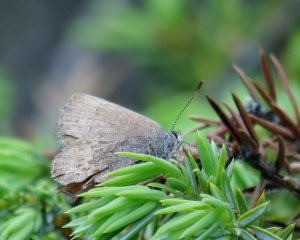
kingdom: Animalia
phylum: Arthropoda
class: Insecta
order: Lepidoptera
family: Lycaenidae
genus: Incisalia
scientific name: Incisalia irioides
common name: Brown Elfin
